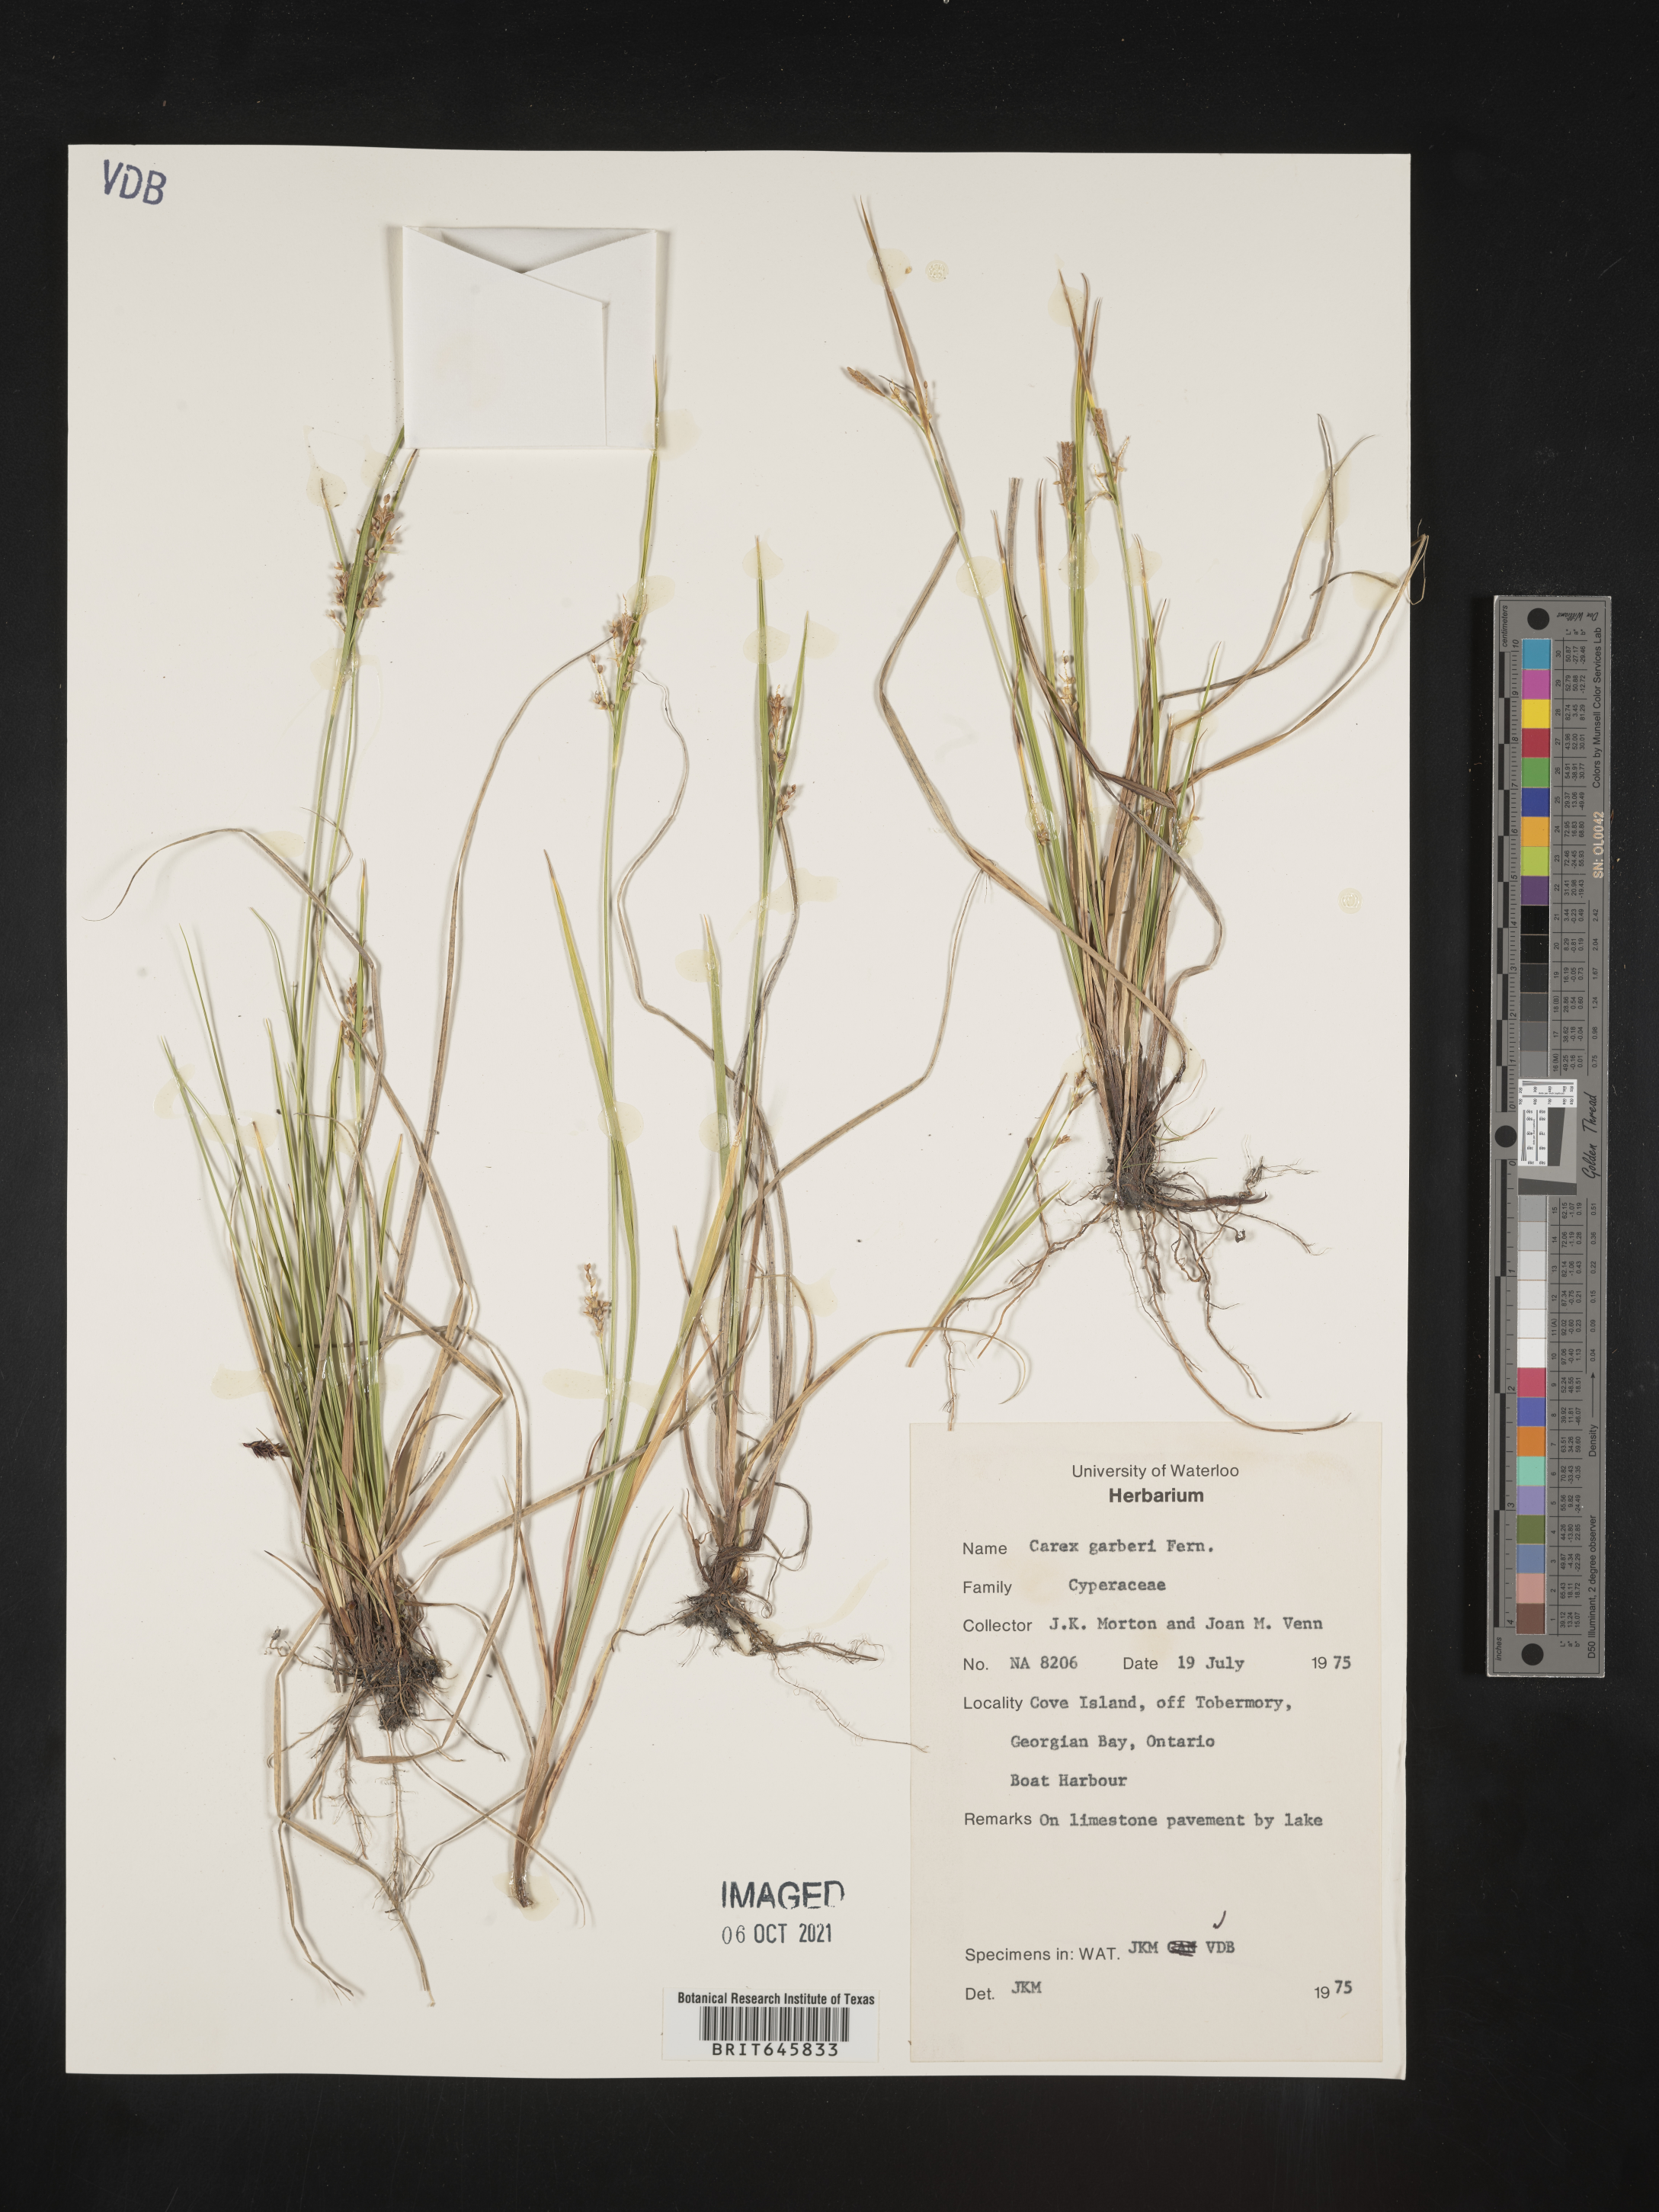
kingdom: Plantae
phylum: Tracheophyta
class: Liliopsida
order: Poales
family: Cyperaceae
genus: Carex
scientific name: Carex garberi
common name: Elk sedge
